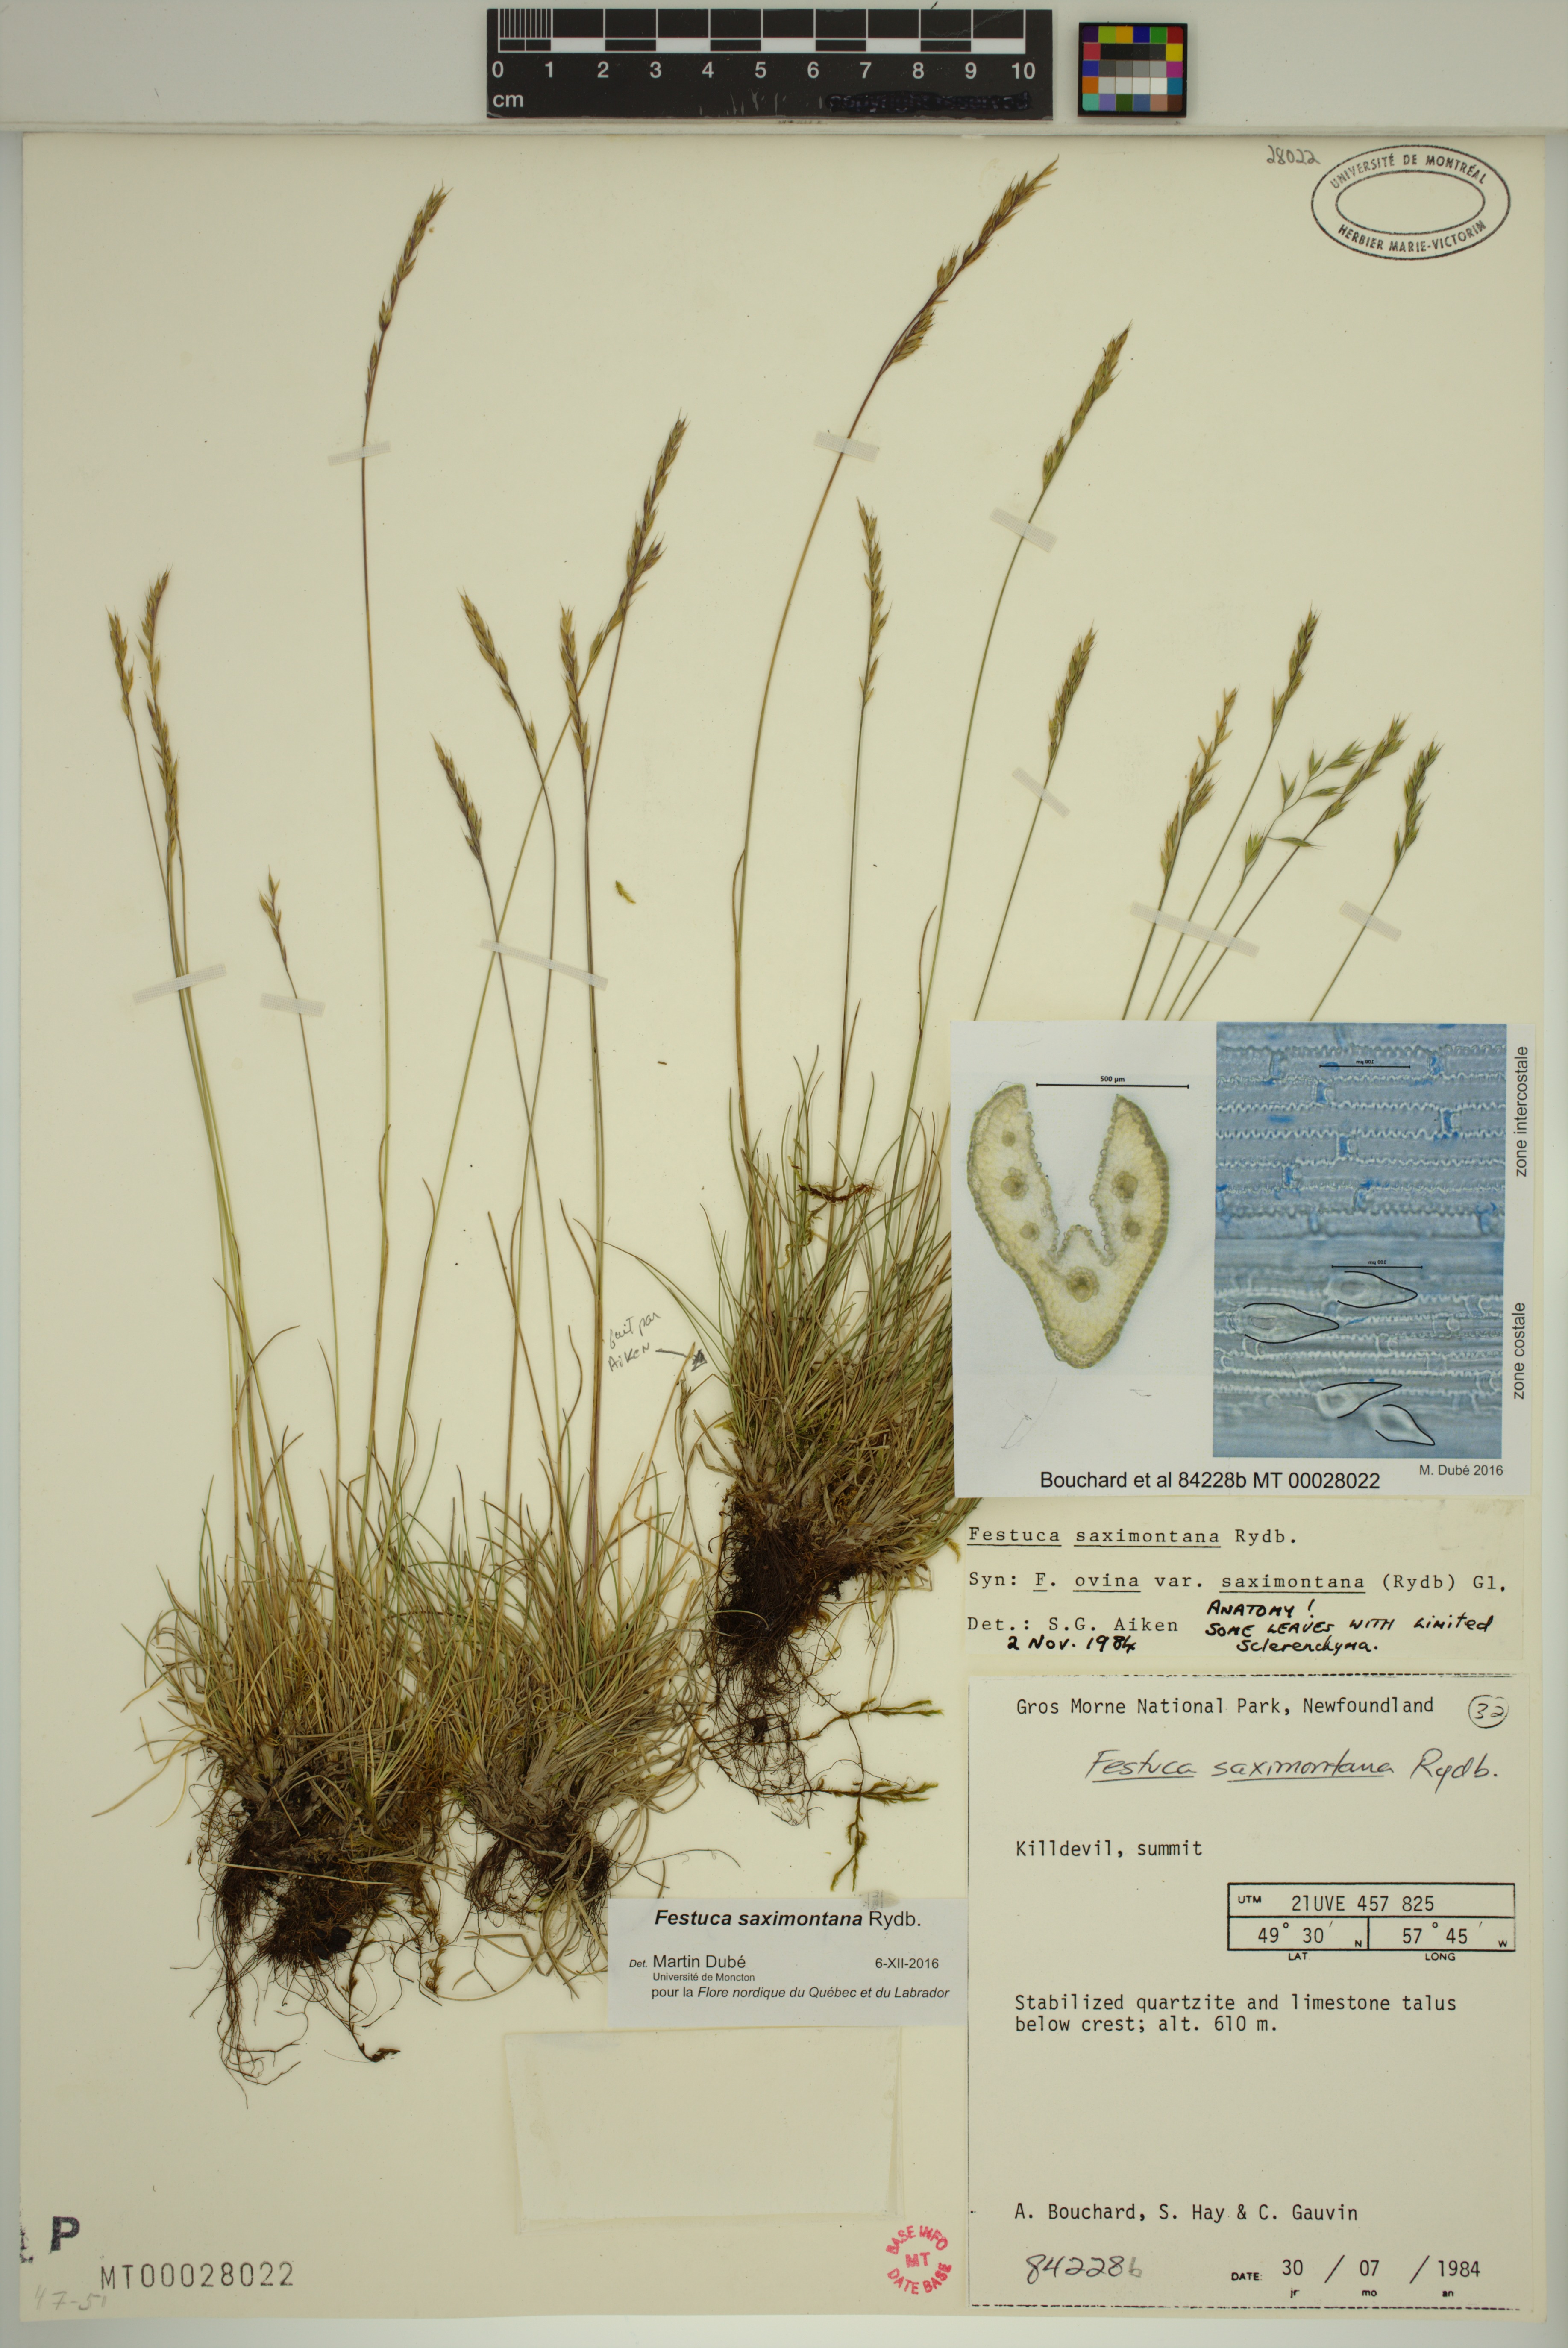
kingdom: Plantae
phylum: Tracheophyta
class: Liliopsida
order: Poales
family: Poaceae
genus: Festuca
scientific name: Festuca saximontana
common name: Mountain fescue
